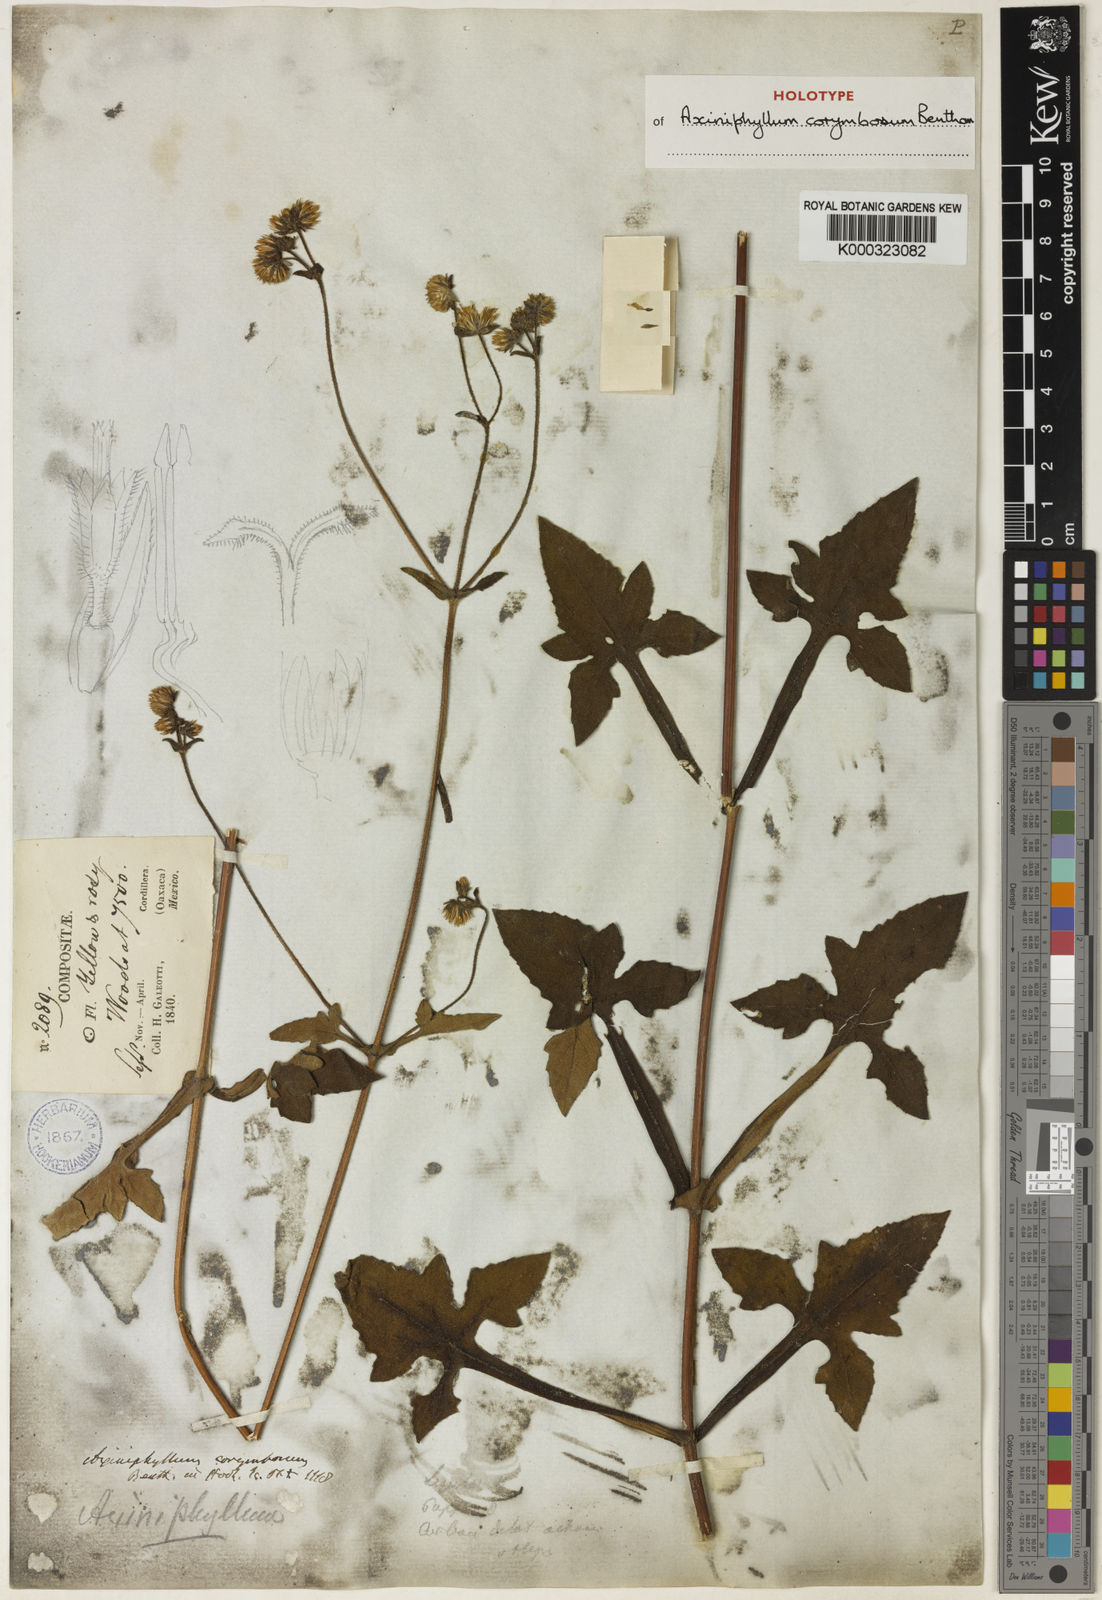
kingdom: Plantae
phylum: Tracheophyta
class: Magnoliopsida
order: Asterales
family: Asteraceae
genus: Axiniphyllum
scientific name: Axiniphyllum corymbosum
